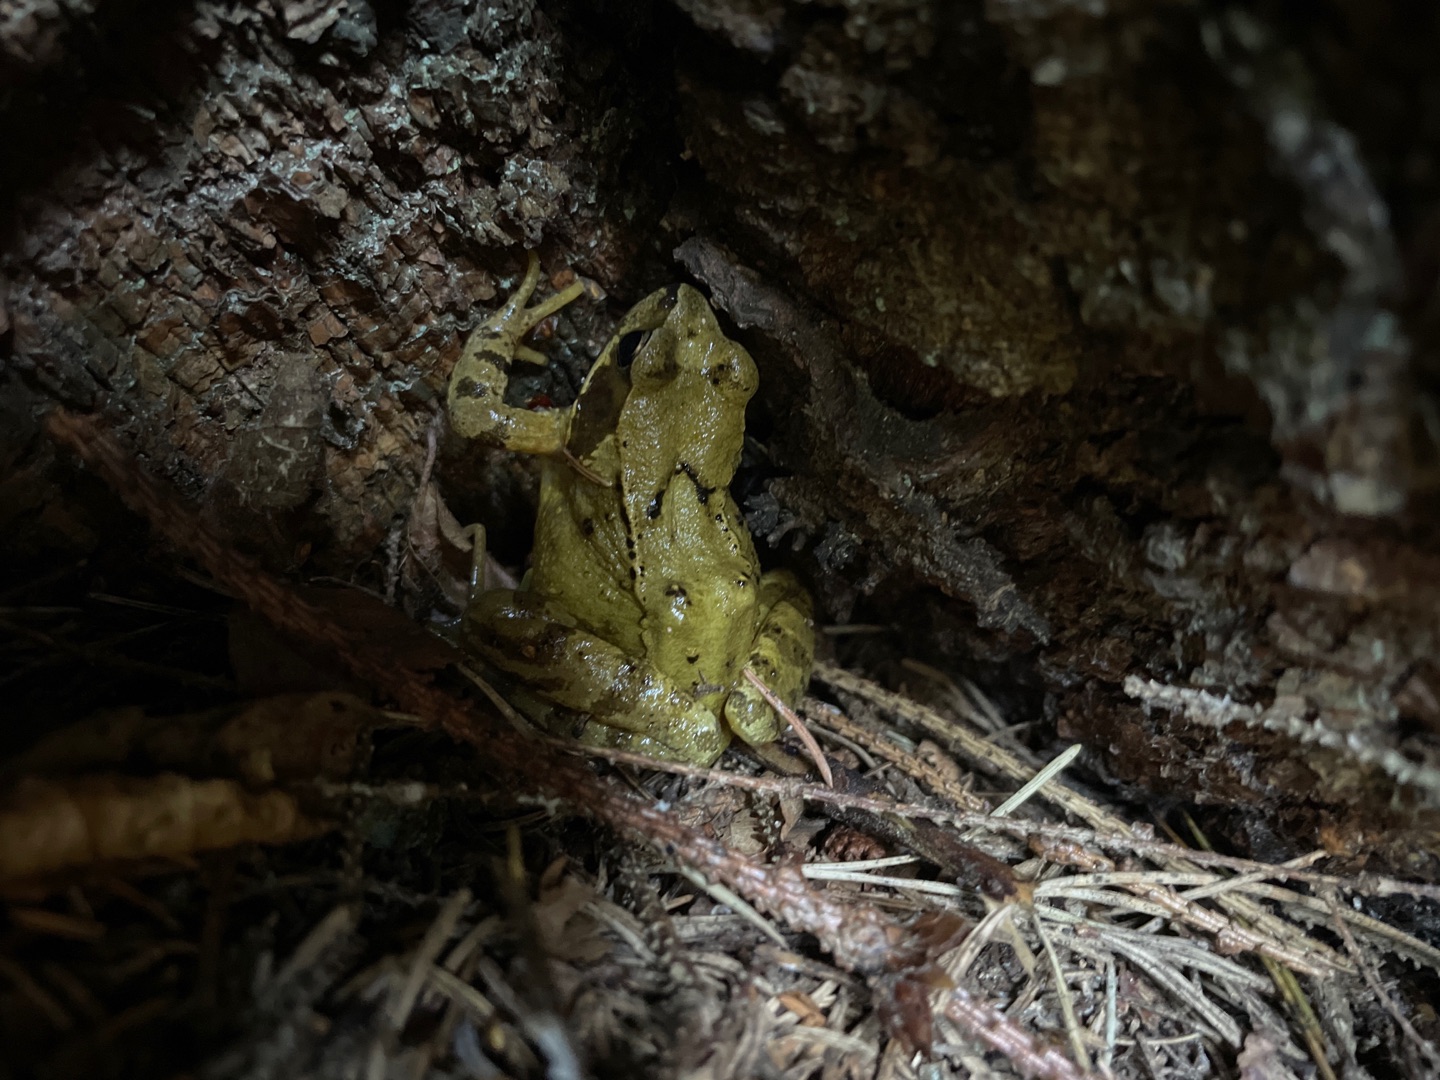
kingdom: Animalia
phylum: Chordata
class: Amphibia
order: Anura
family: Ranidae
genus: Rana
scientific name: Rana temporaria
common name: Butsnudet frø
